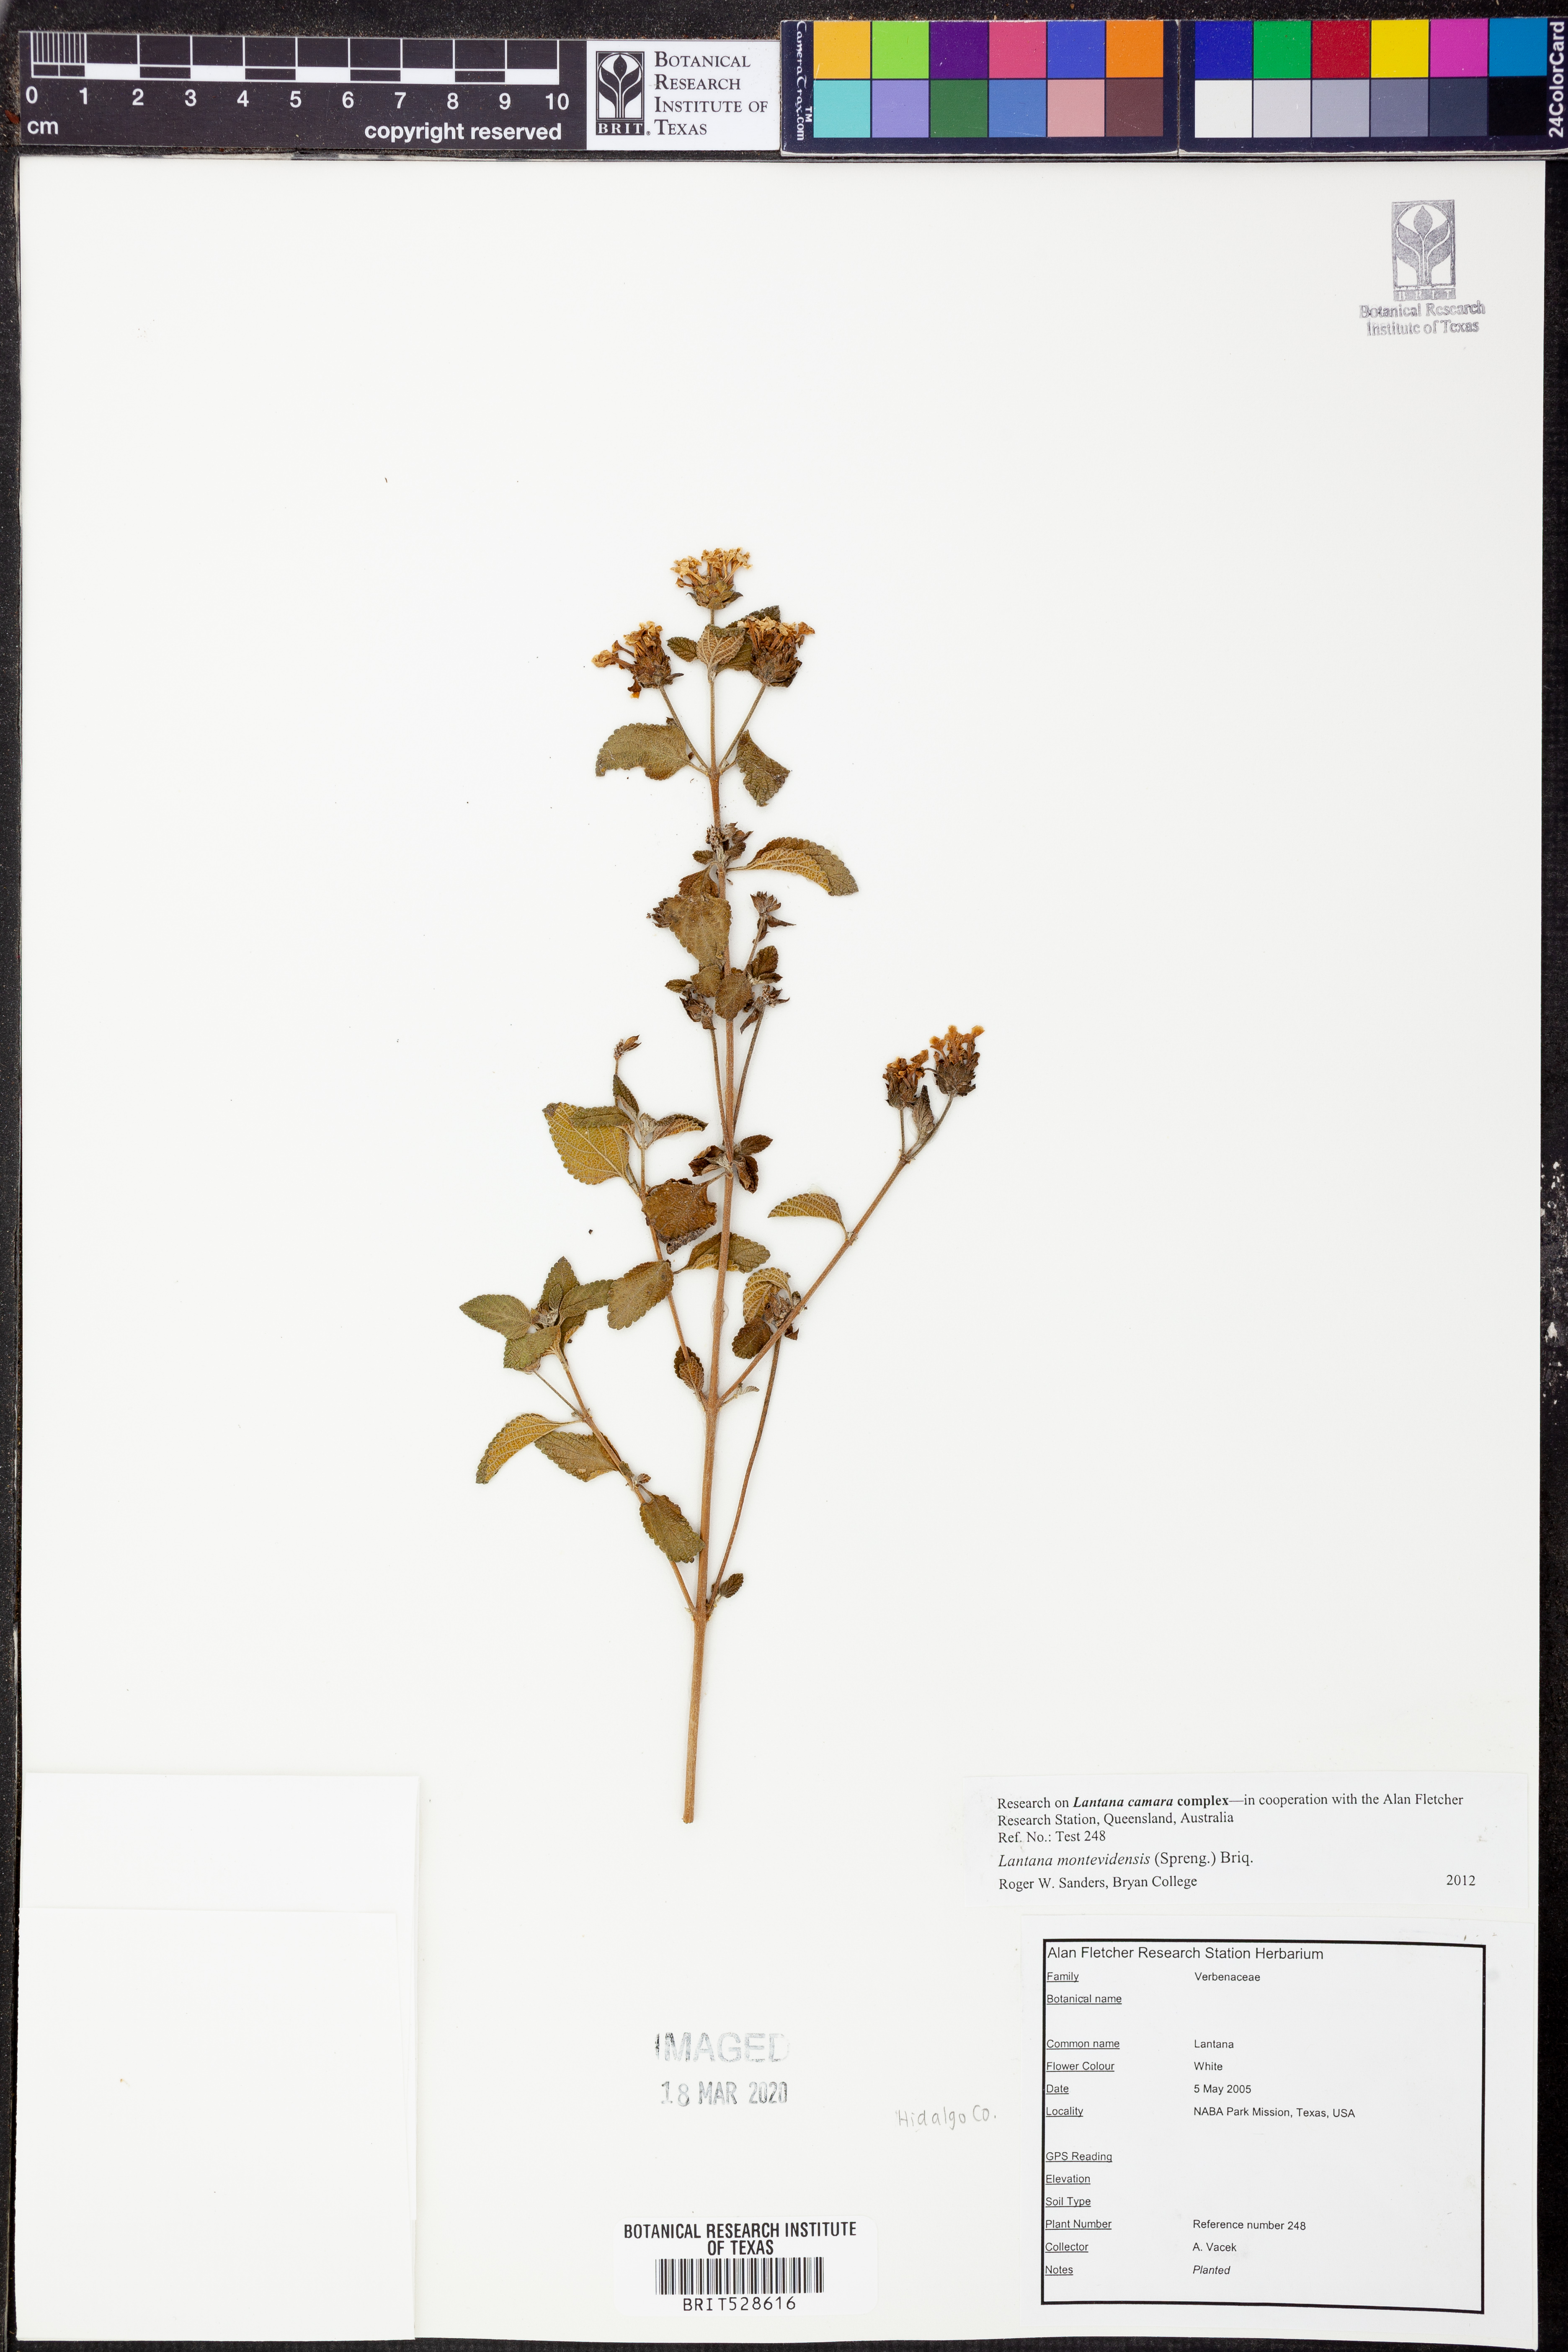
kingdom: Plantae
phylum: Tracheophyta
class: Magnoliopsida
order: Lamiales
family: Verbenaceae
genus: Lantana
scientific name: Lantana montevidensis
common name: Trailing shrubverbena
